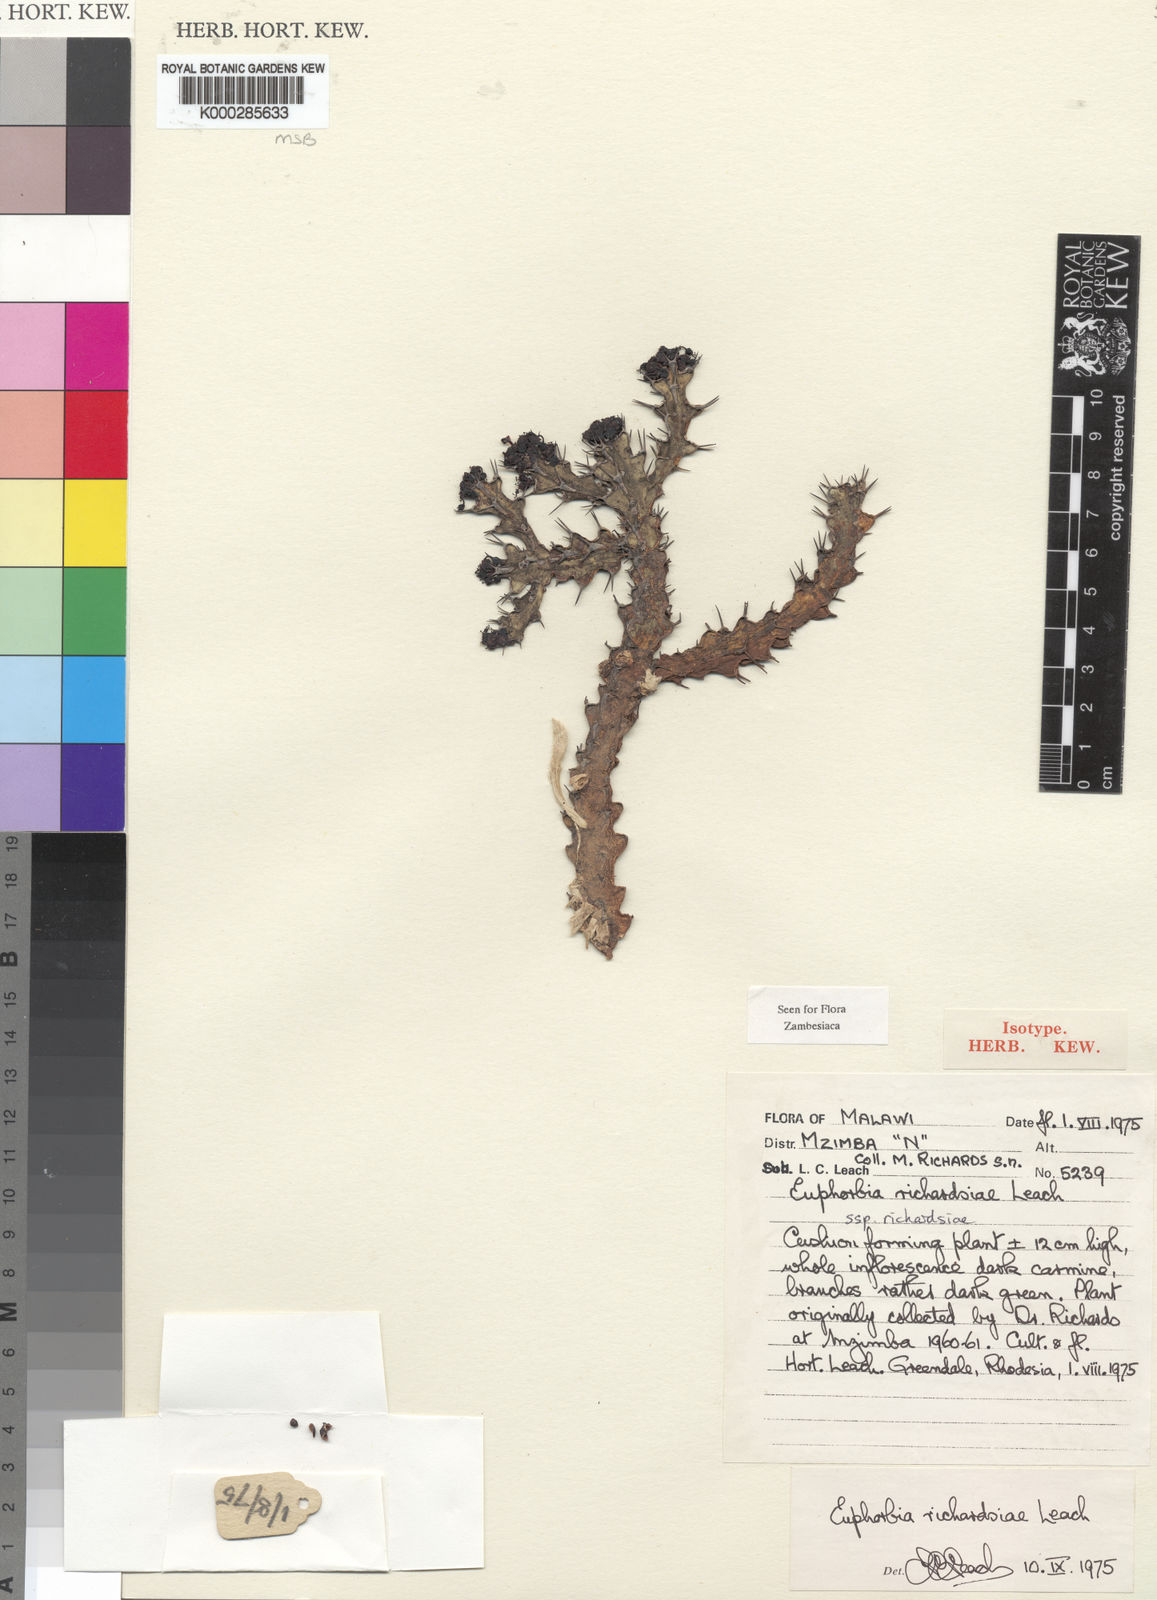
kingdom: Plantae
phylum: Tracheophyta
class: Magnoliopsida
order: Malpighiales
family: Euphorbiaceae
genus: Euphorbia
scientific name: Euphorbia richardsiae
